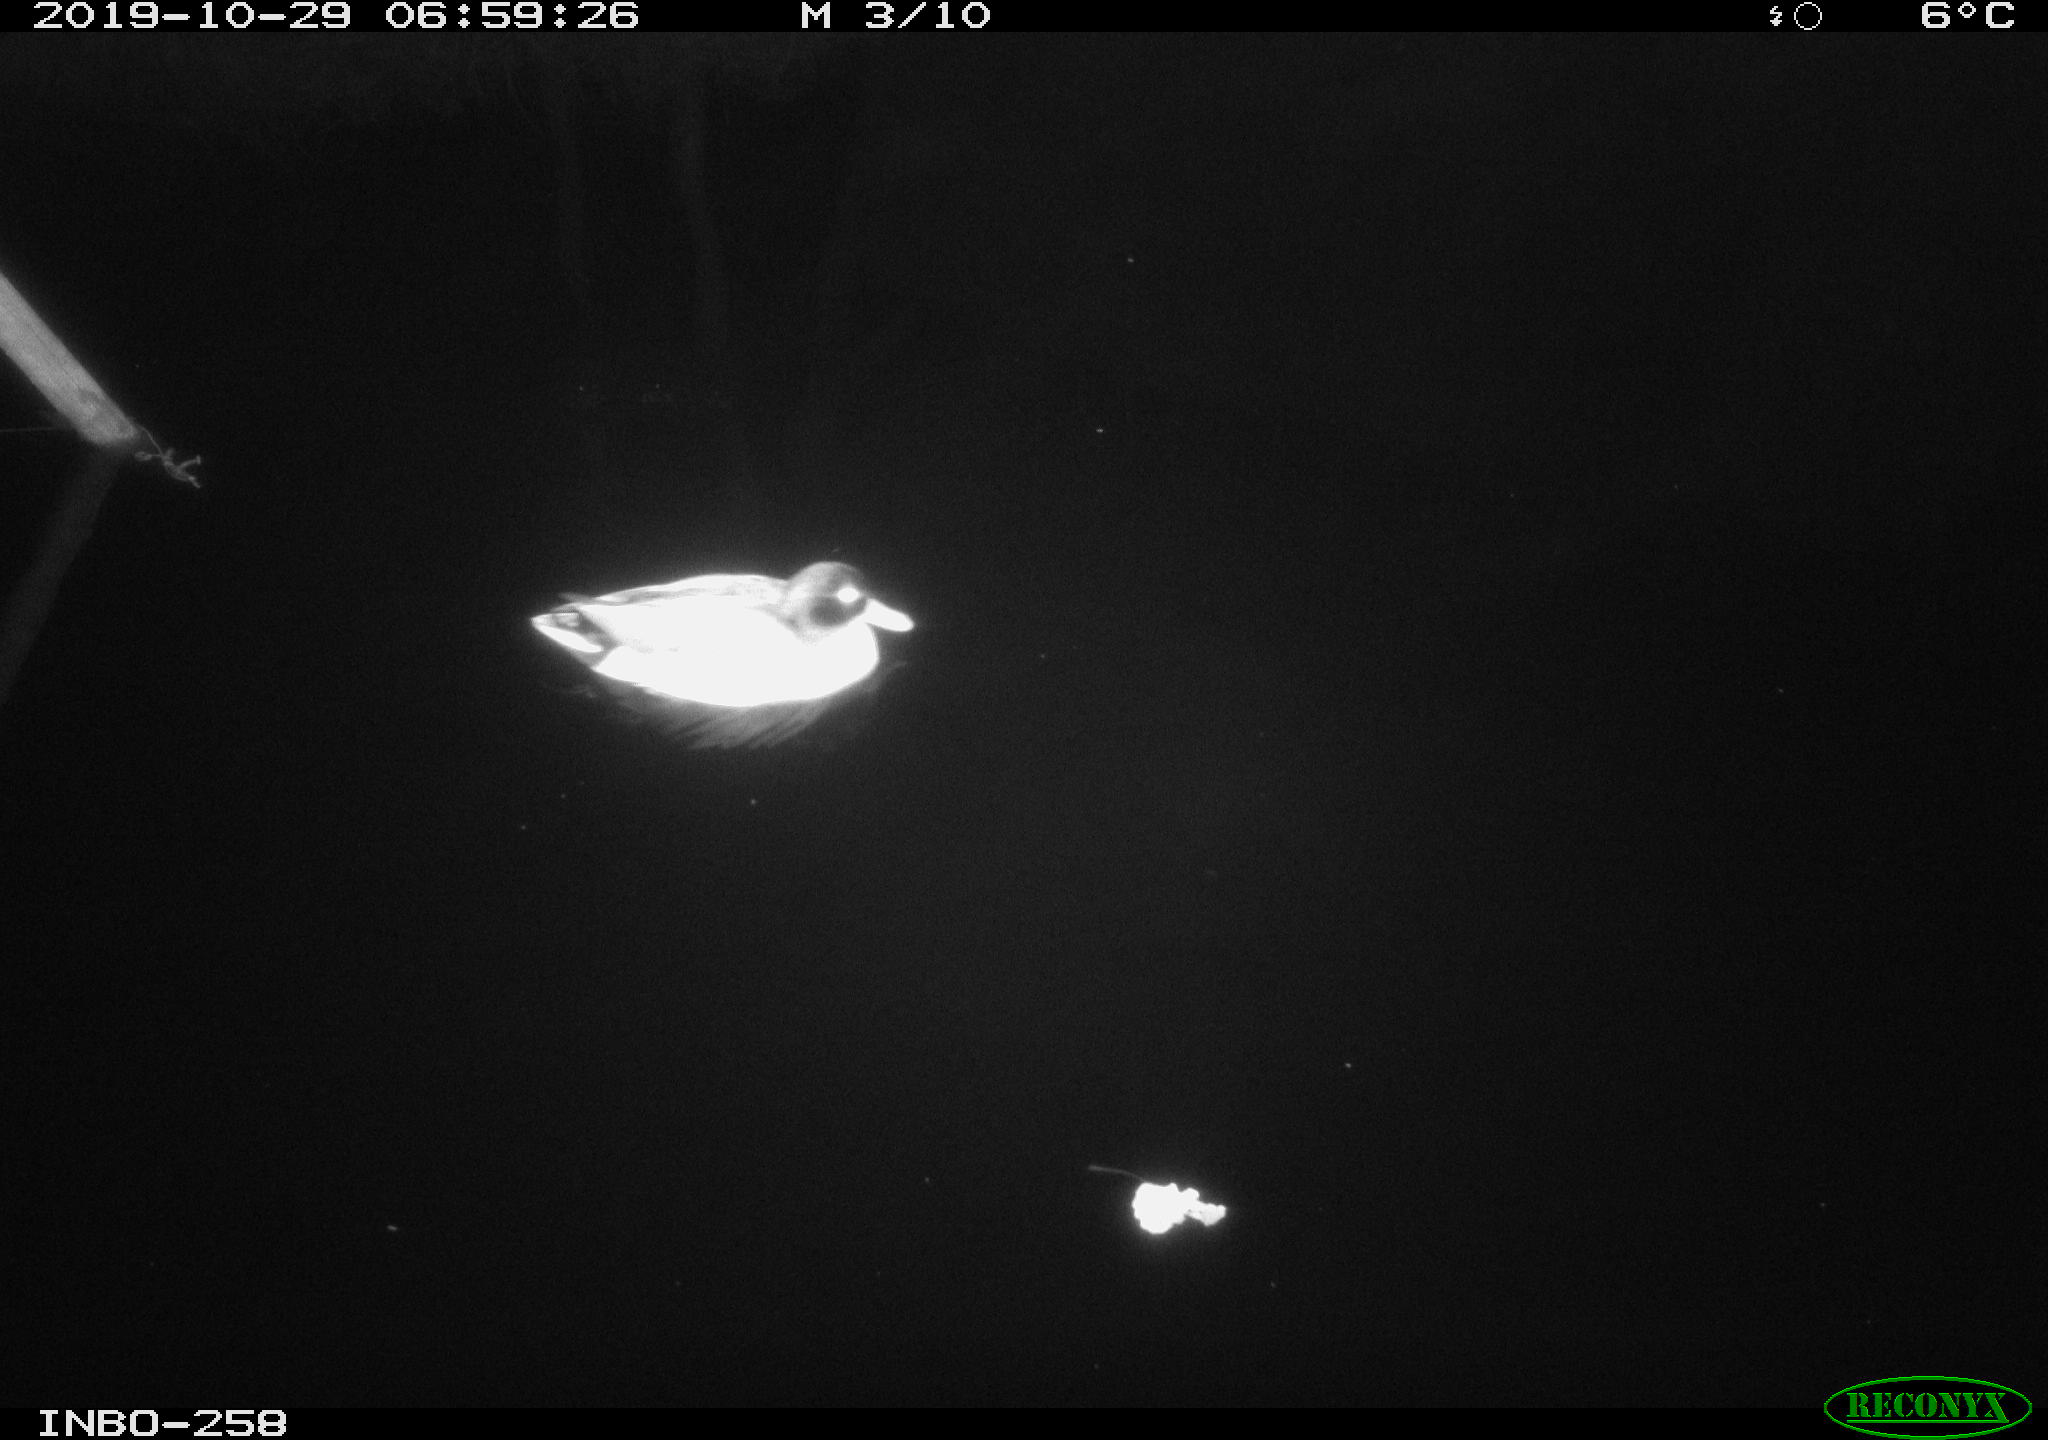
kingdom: Animalia
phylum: Chordata
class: Aves
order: Anseriformes
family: Anatidae
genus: Anas
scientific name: Anas platyrhynchos
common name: Mallard
